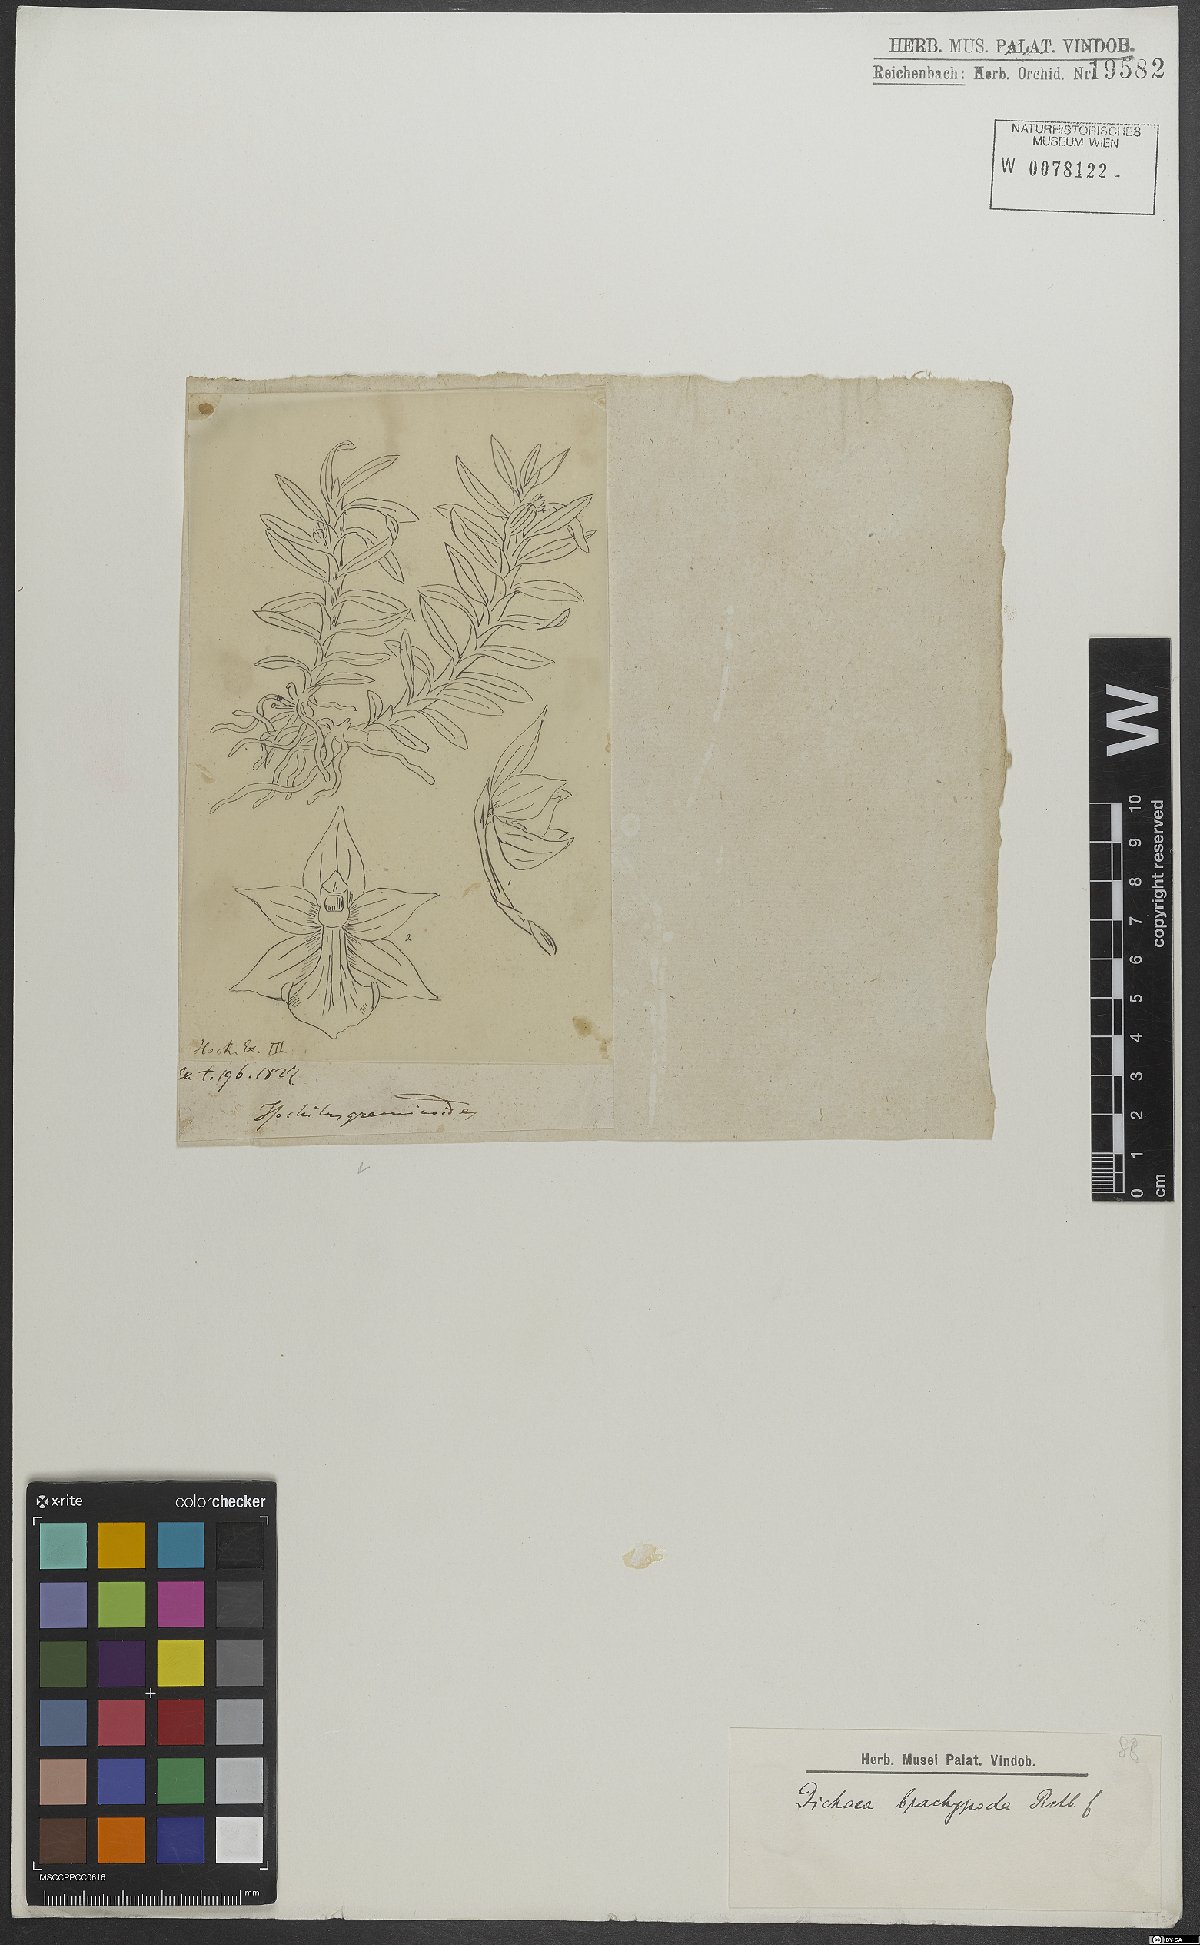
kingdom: Plantae
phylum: Tracheophyta
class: Liliopsida
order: Asparagales
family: Orchidaceae
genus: Dichaea
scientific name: Dichaea panamensis
